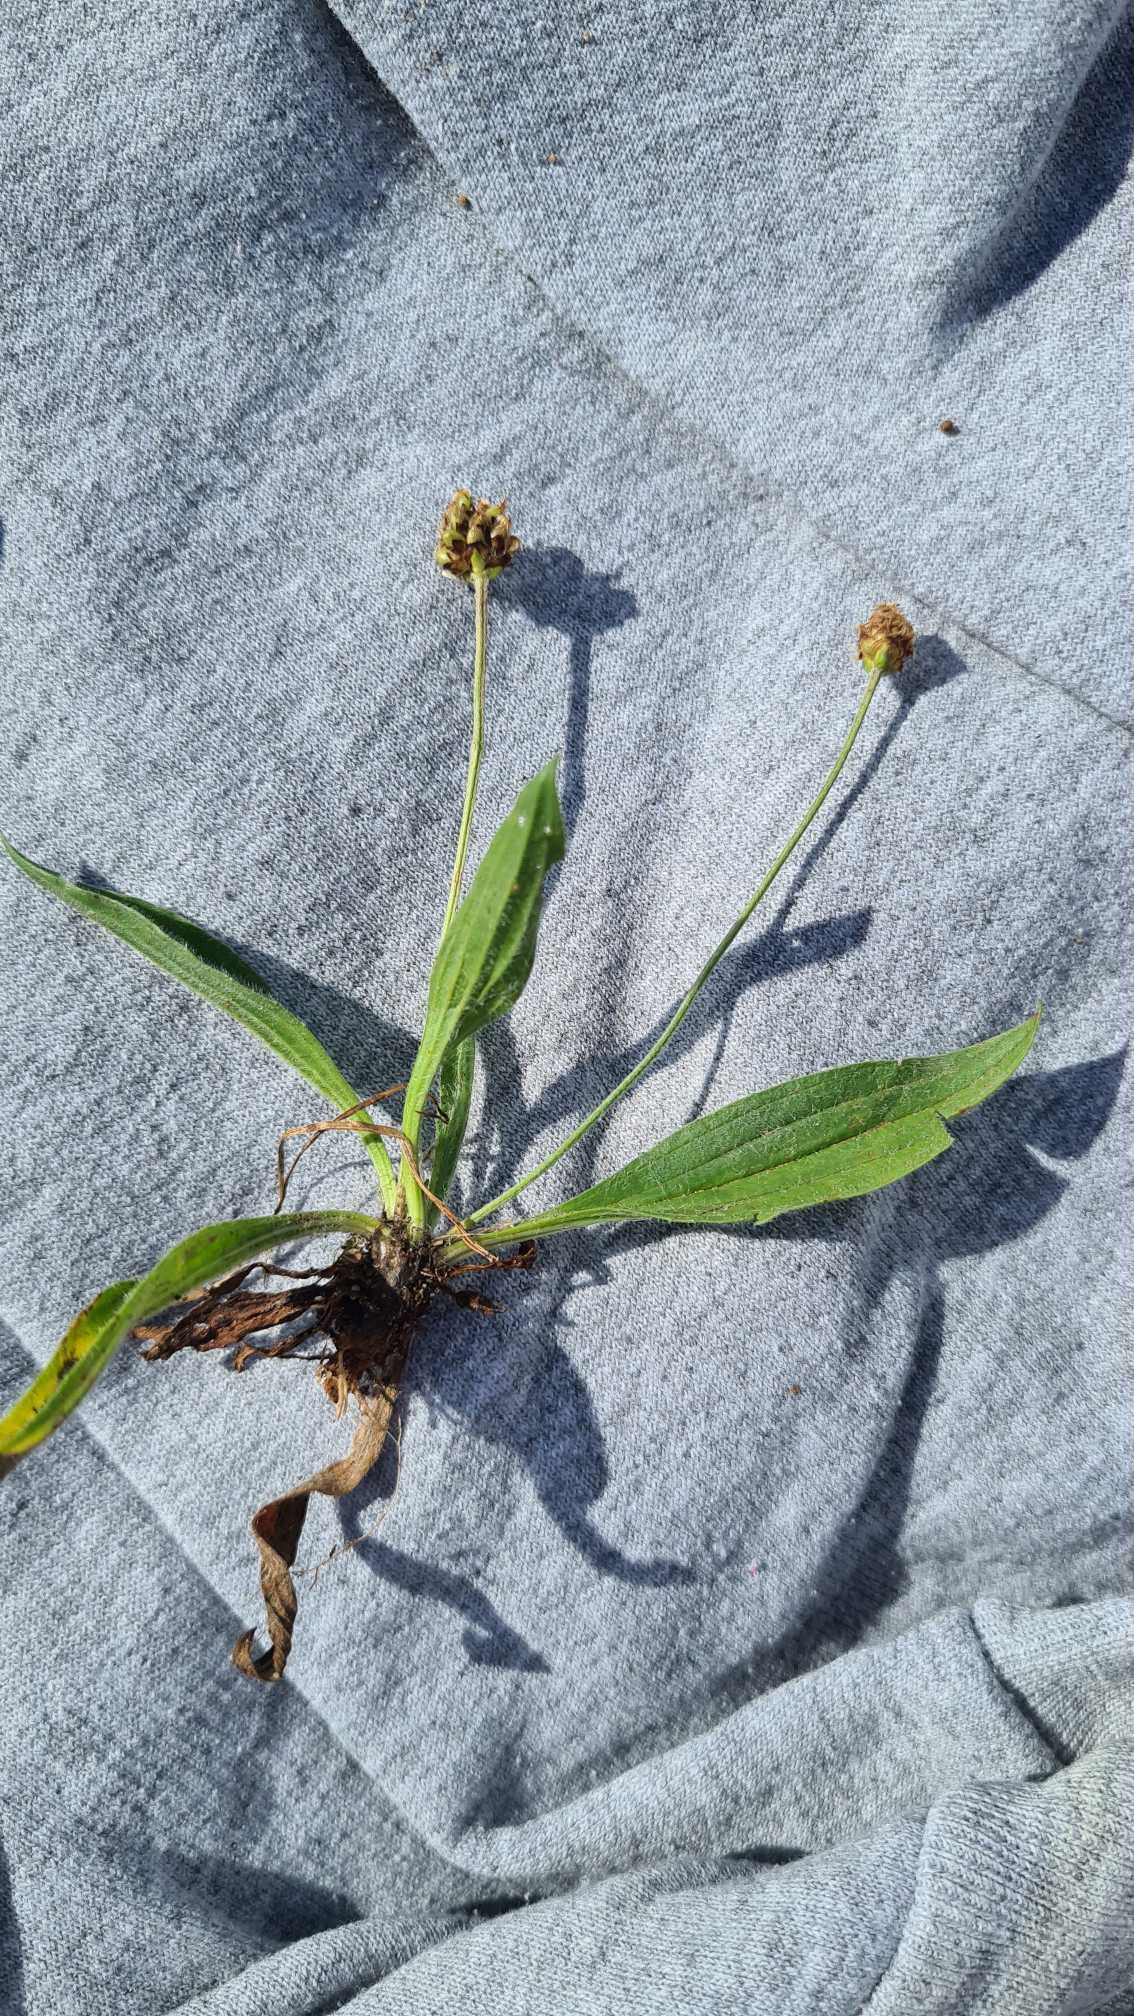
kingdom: Plantae
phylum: Tracheophyta
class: Magnoliopsida
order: Lamiales
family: Plantaginaceae
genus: Plantago
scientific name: Plantago lanceolata
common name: Lancet-vejbred
